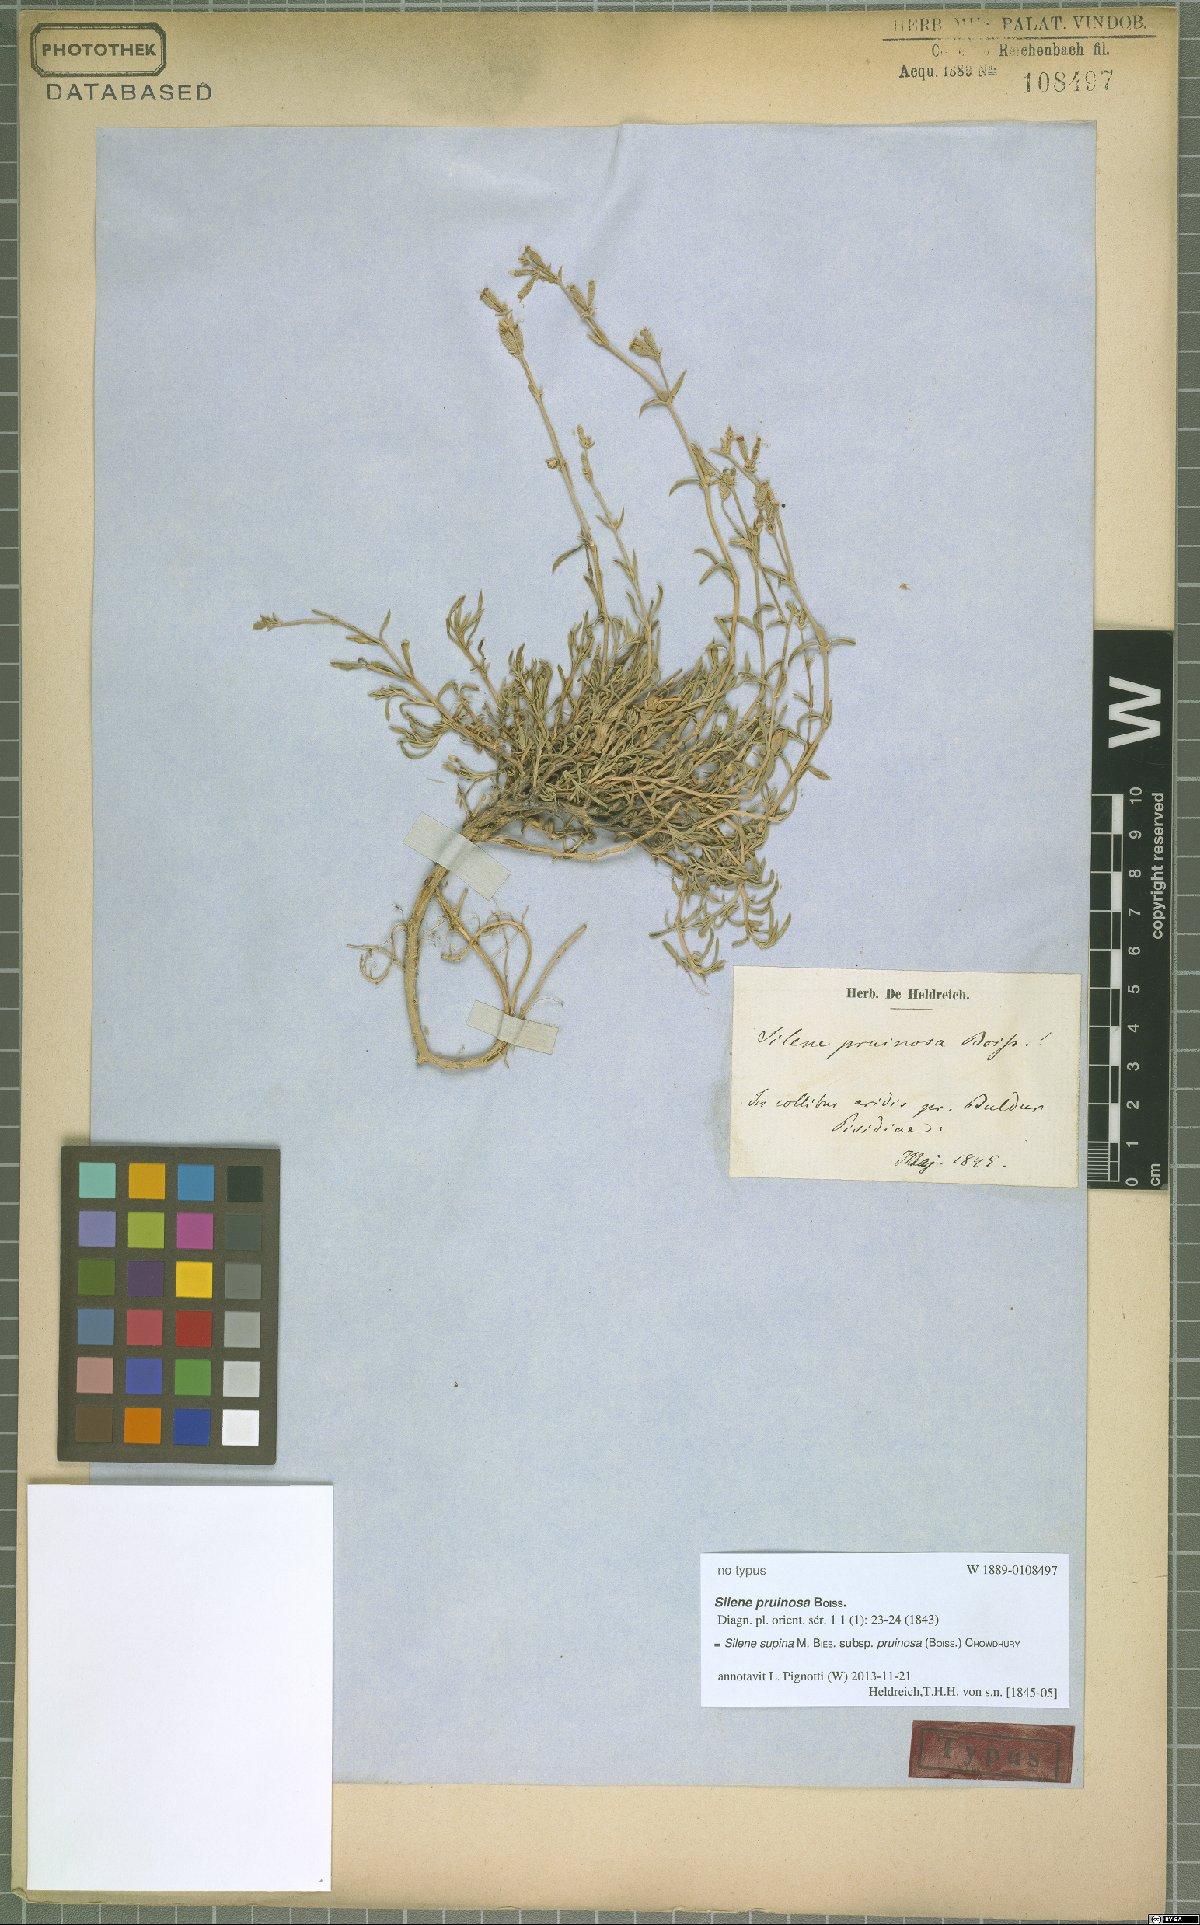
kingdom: Plantae
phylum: Tracheophyta
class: Magnoliopsida
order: Caryophyllales
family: Caryophyllaceae
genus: Silene
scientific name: Silene argentea
